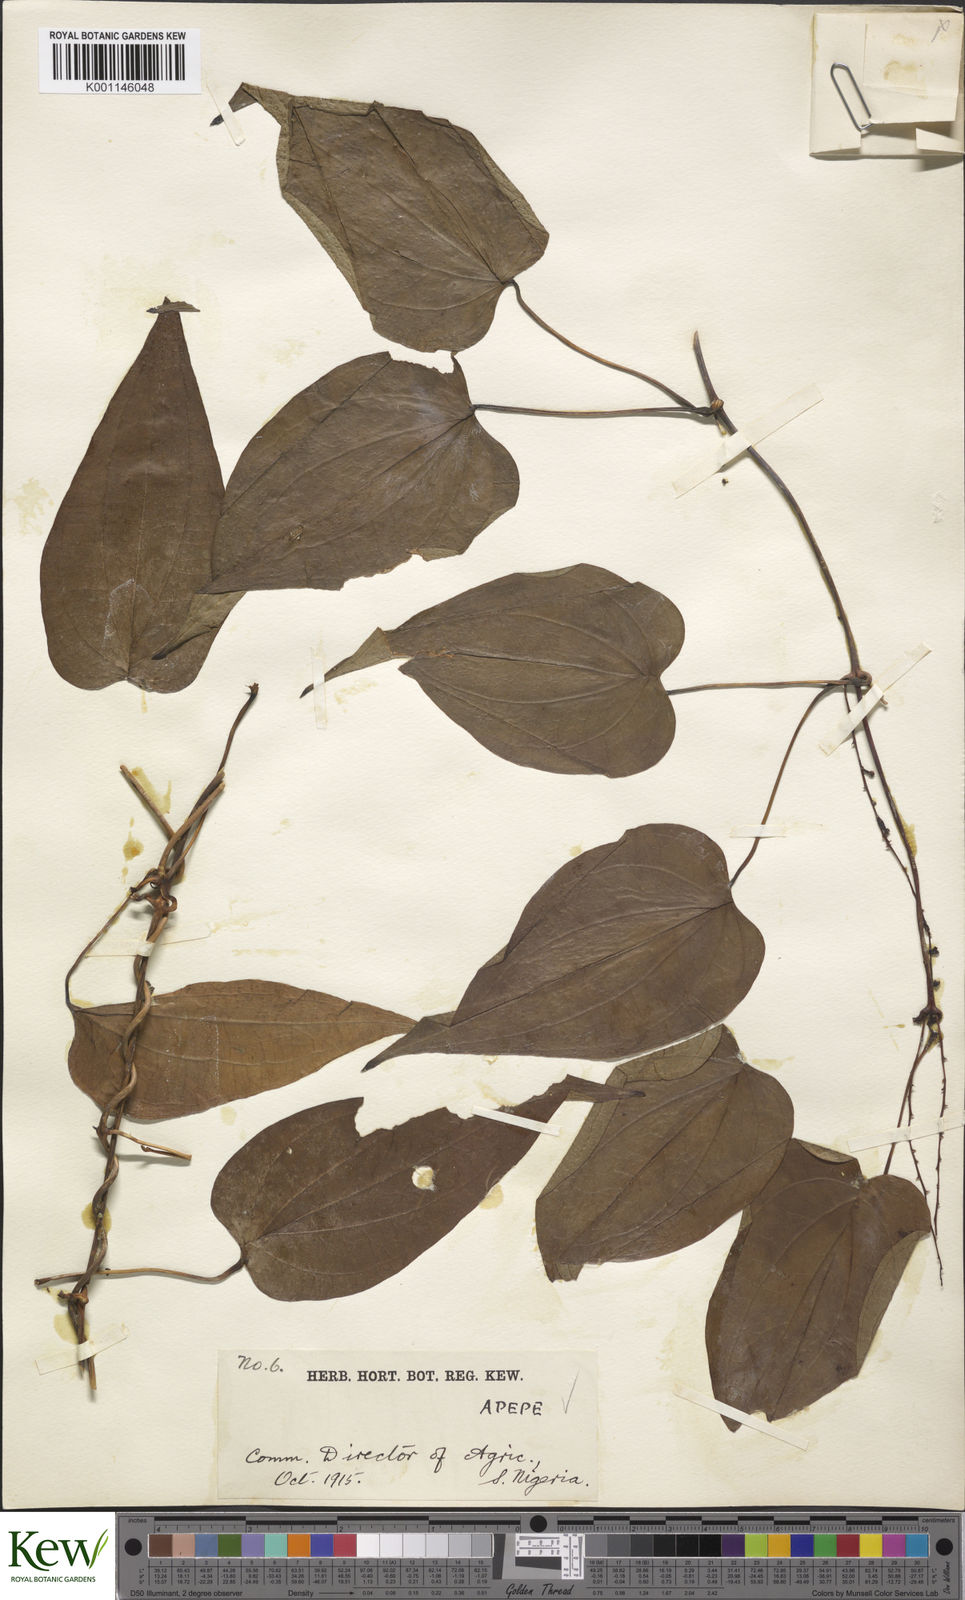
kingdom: Plantae
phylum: Tracheophyta
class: Liliopsida
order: Dioscoreales
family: Dioscoreaceae
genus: Dioscorea
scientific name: Dioscorea baya
